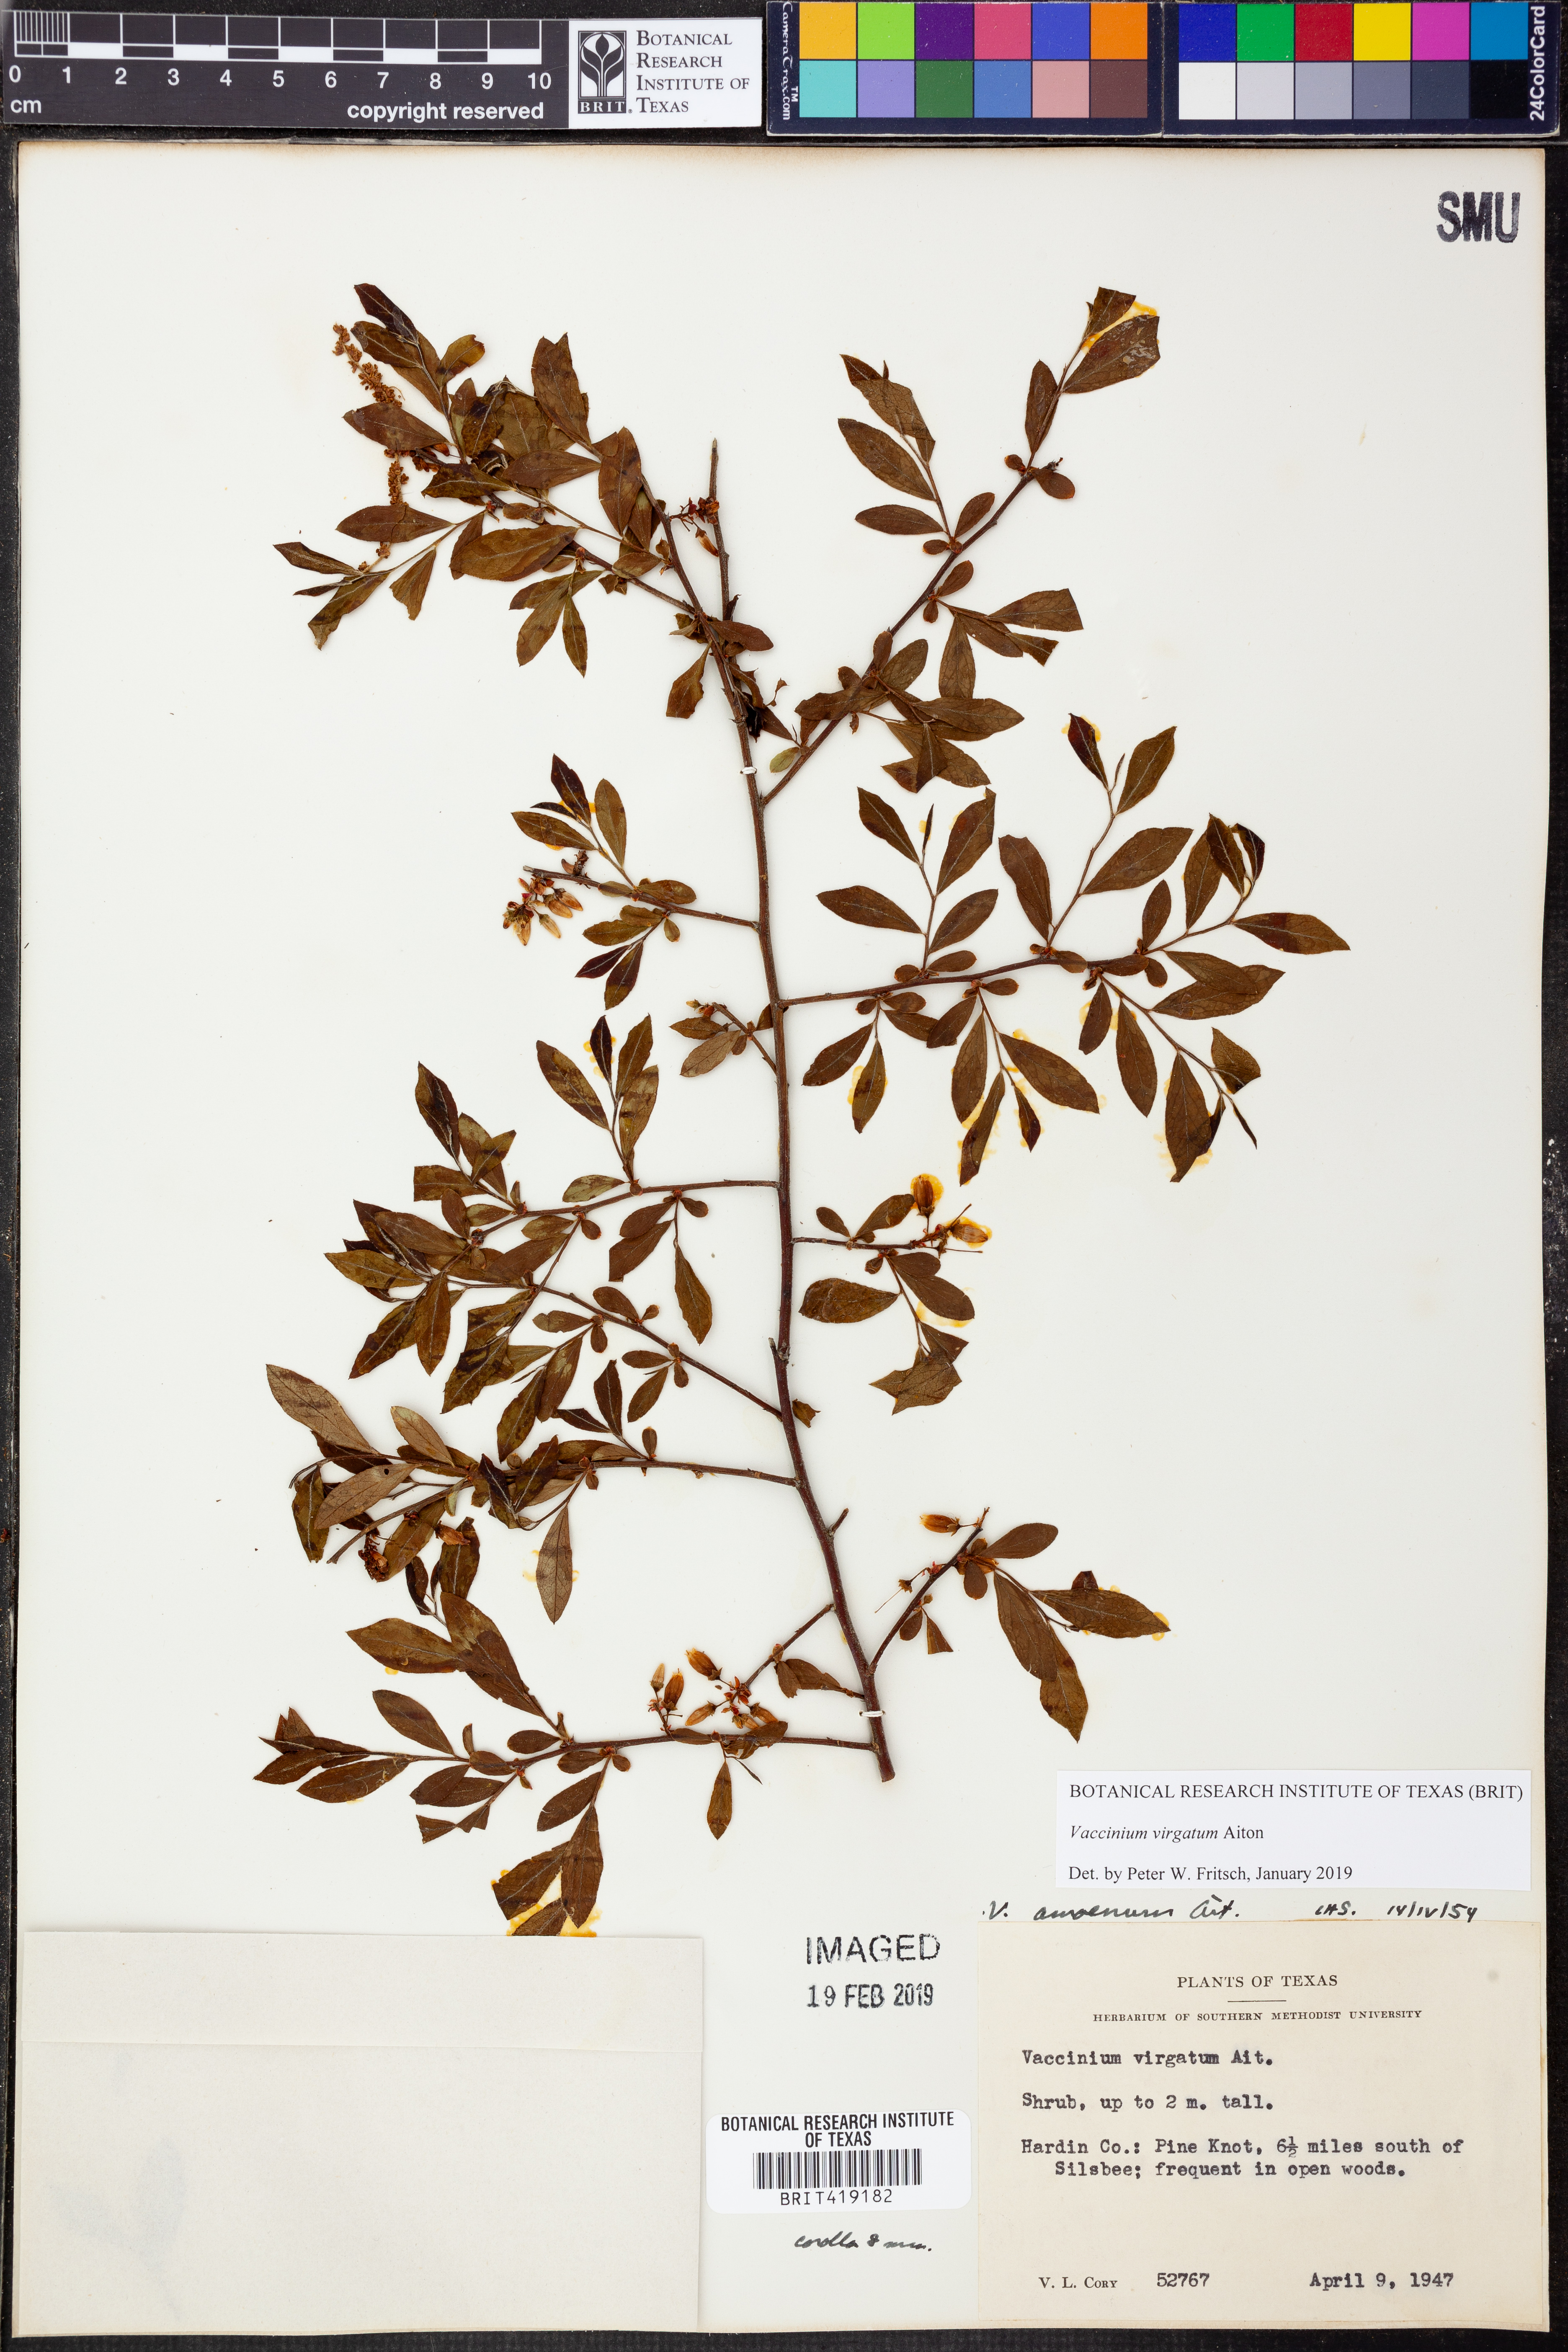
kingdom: Plantae
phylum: Tracheophyta
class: Magnoliopsida
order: Ericales
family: Ericaceae
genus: Vaccinium
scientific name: Vaccinium corymbosum
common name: Blueberry
